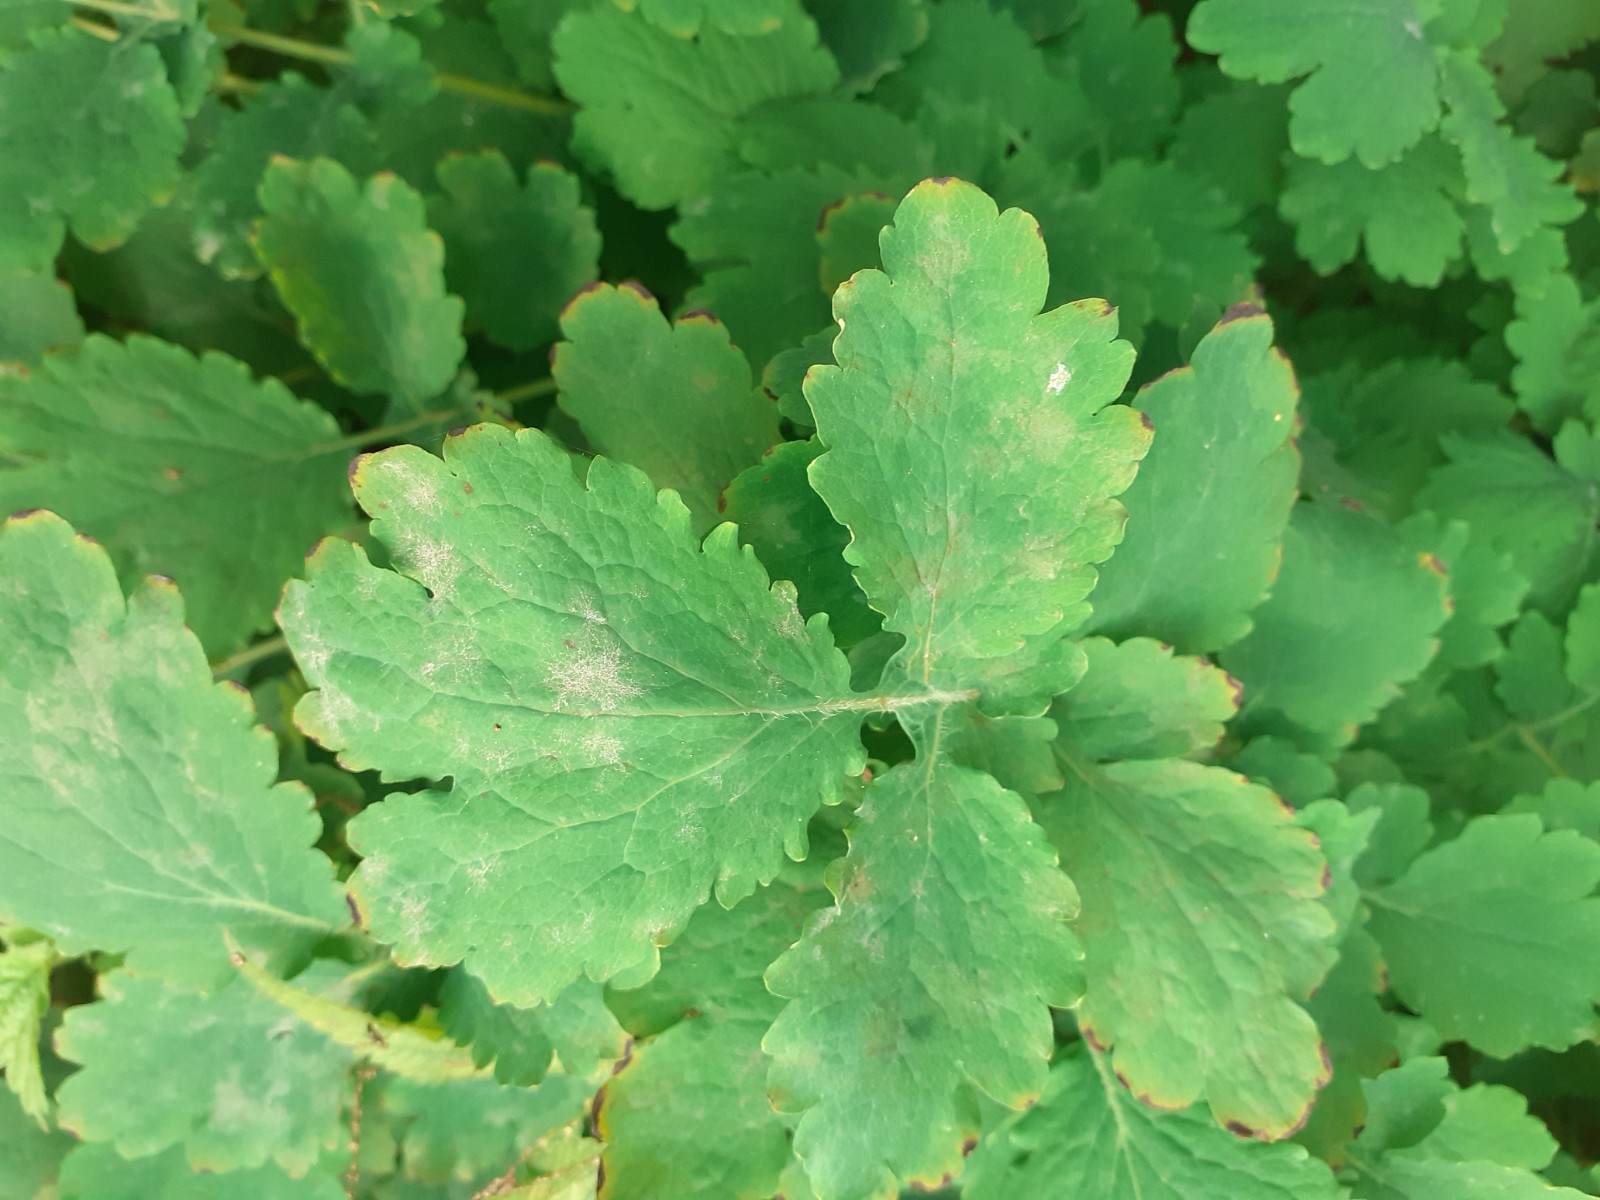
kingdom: Fungi
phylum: Ascomycota
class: Leotiomycetes
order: Helotiales
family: Erysiphaceae
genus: Erysiphe
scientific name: Erysiphe macleayae
